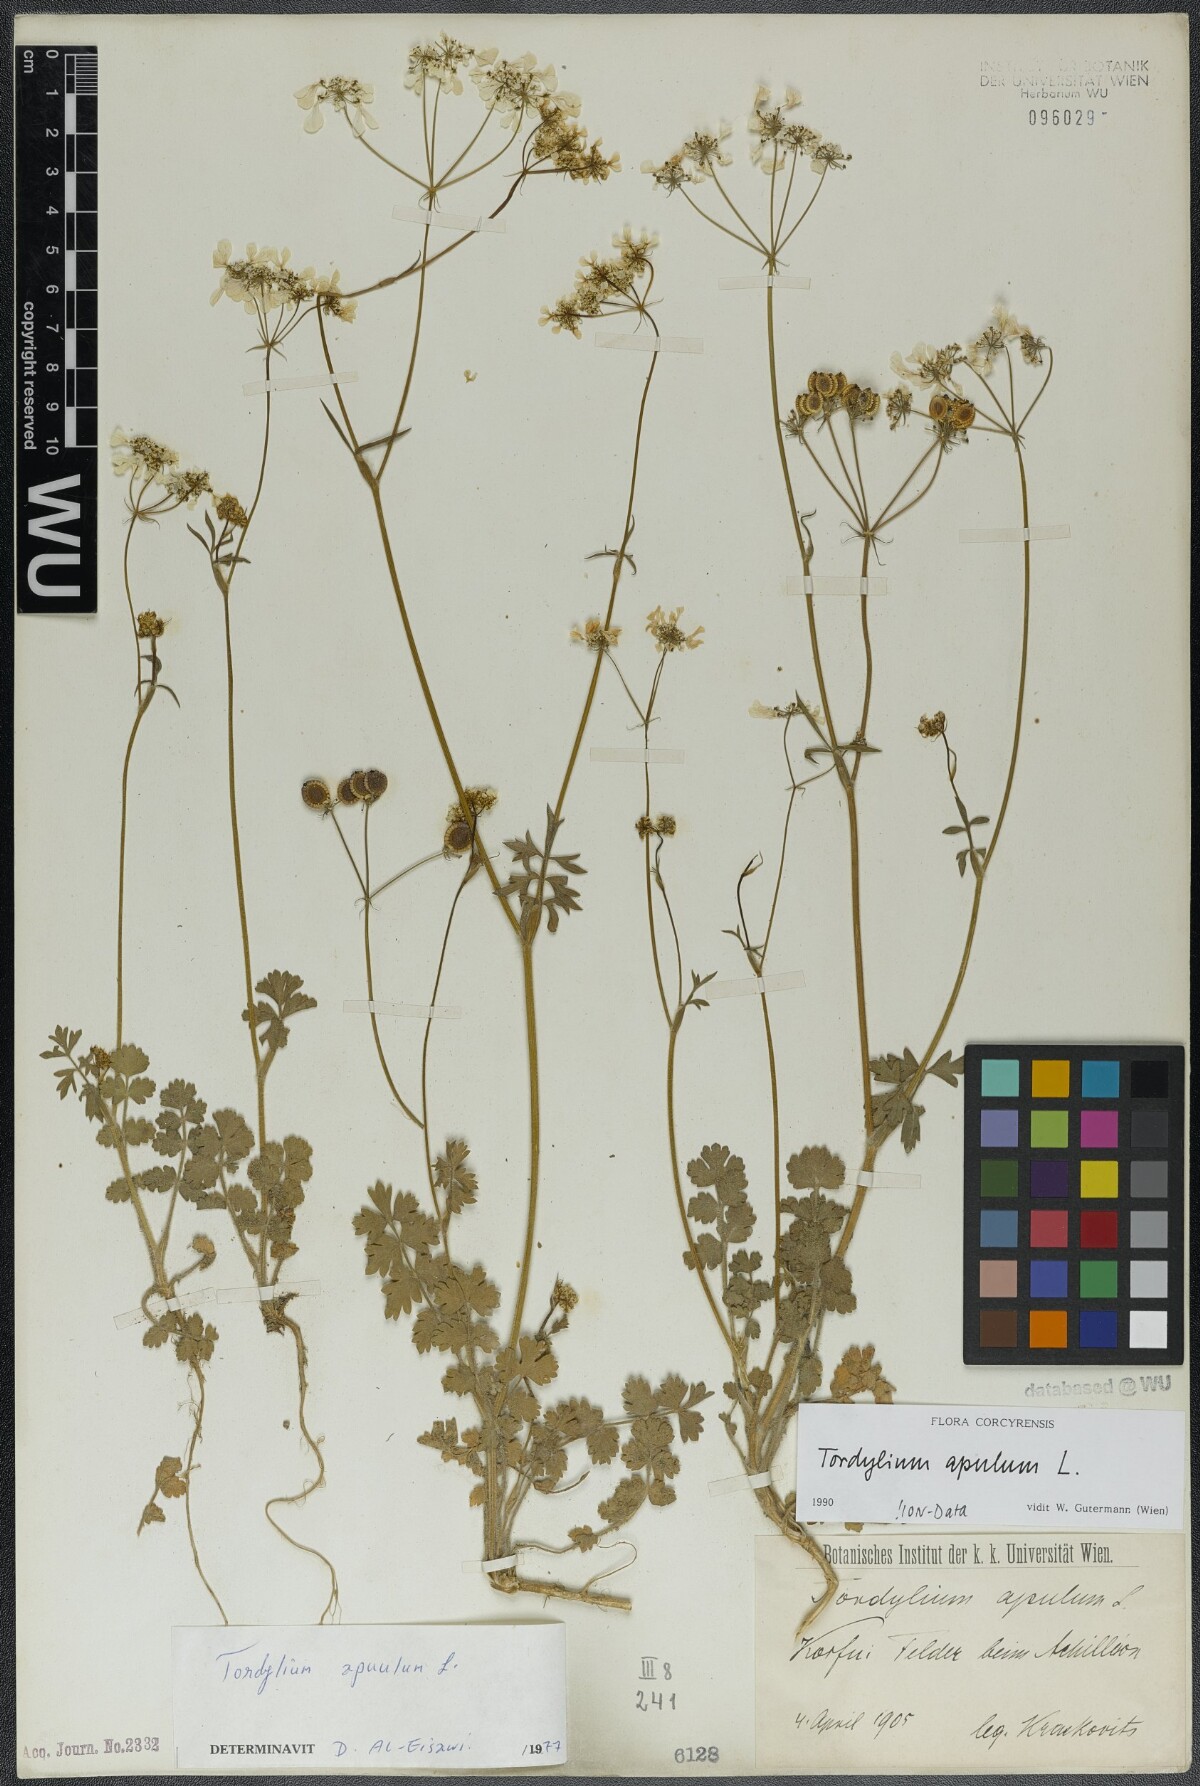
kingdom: Plantae
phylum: Tracheophyta
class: Magnoliopsida
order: Apiales
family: Apiaceae
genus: Tordylium
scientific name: Tordylium apulum
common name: Mediterranean hartwort
